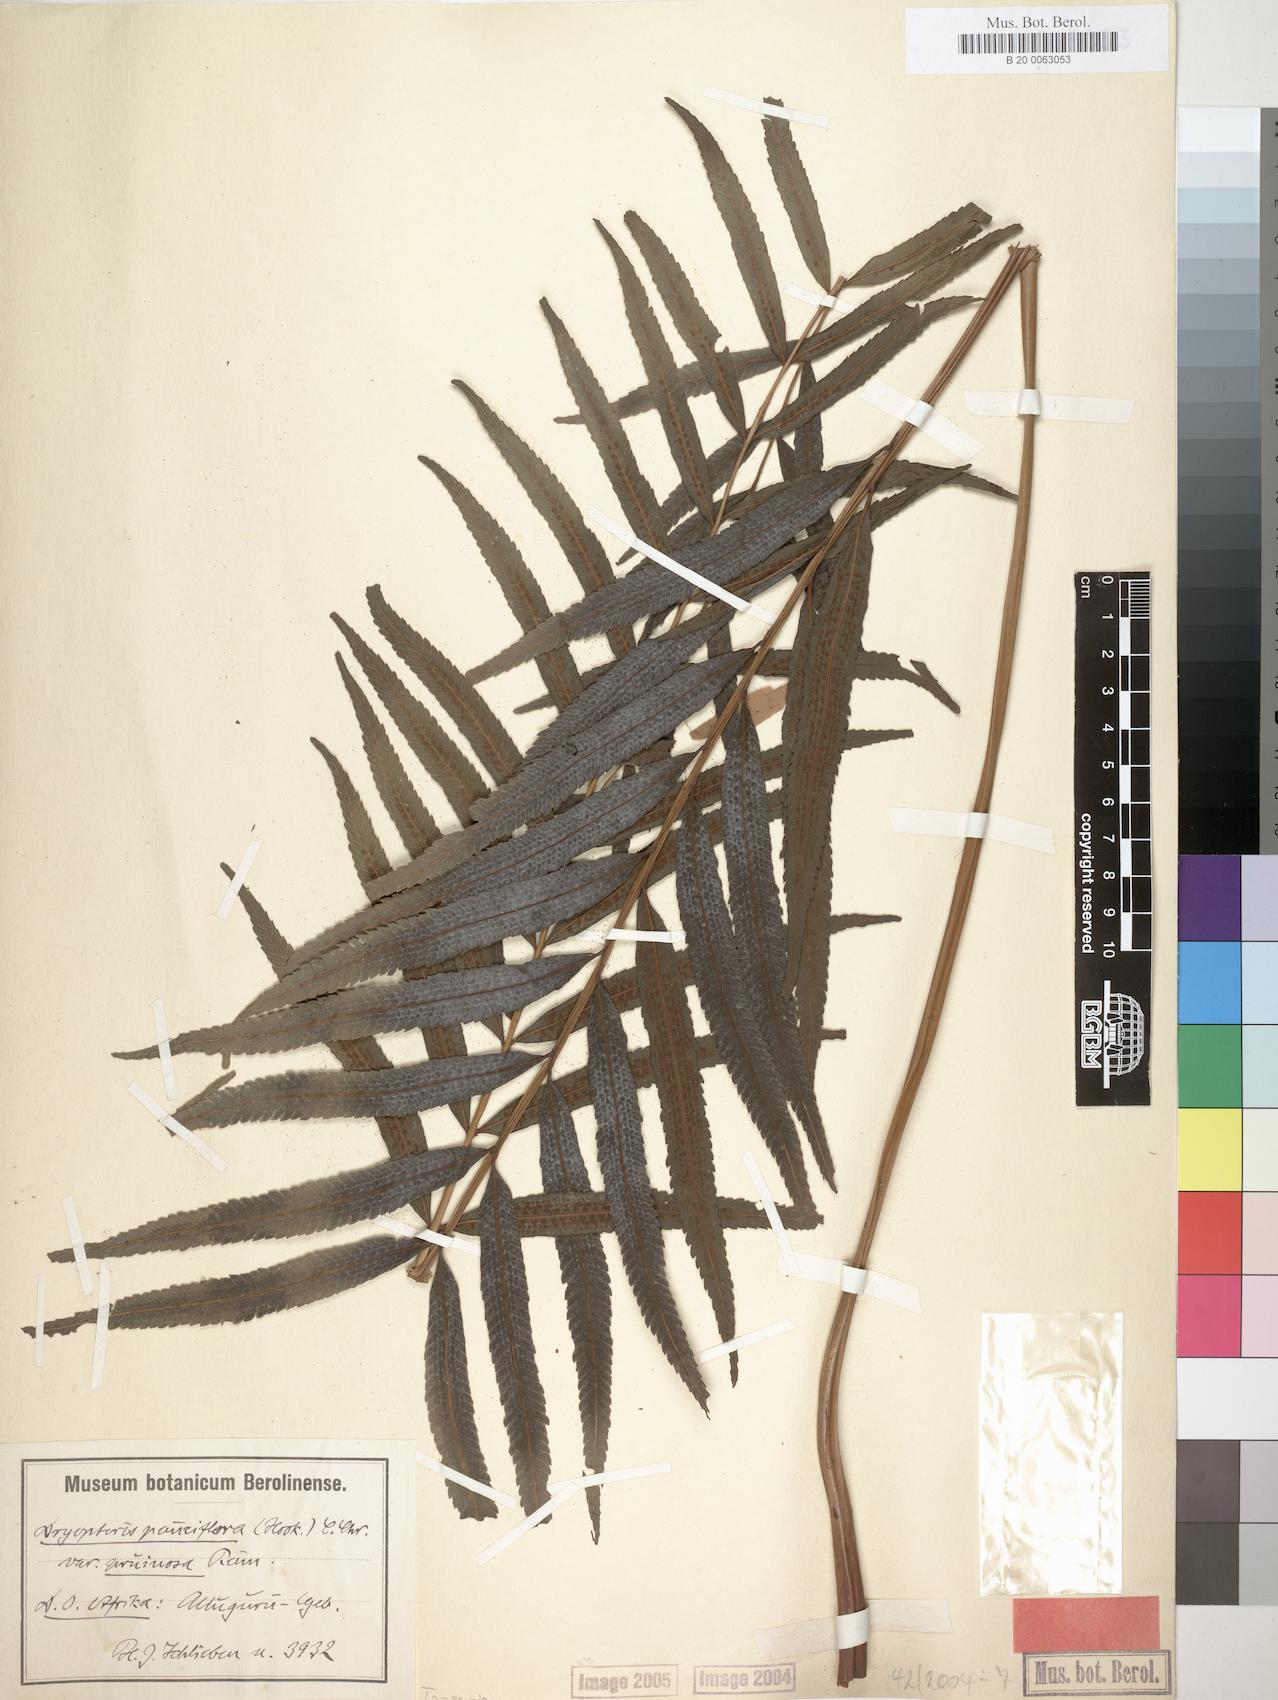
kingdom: Plantae
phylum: Tracheophyta
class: Polypodiopsida
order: Polypodiales
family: Thelypteridaceae
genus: Menisorus
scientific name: Menisorus pauciflorus
